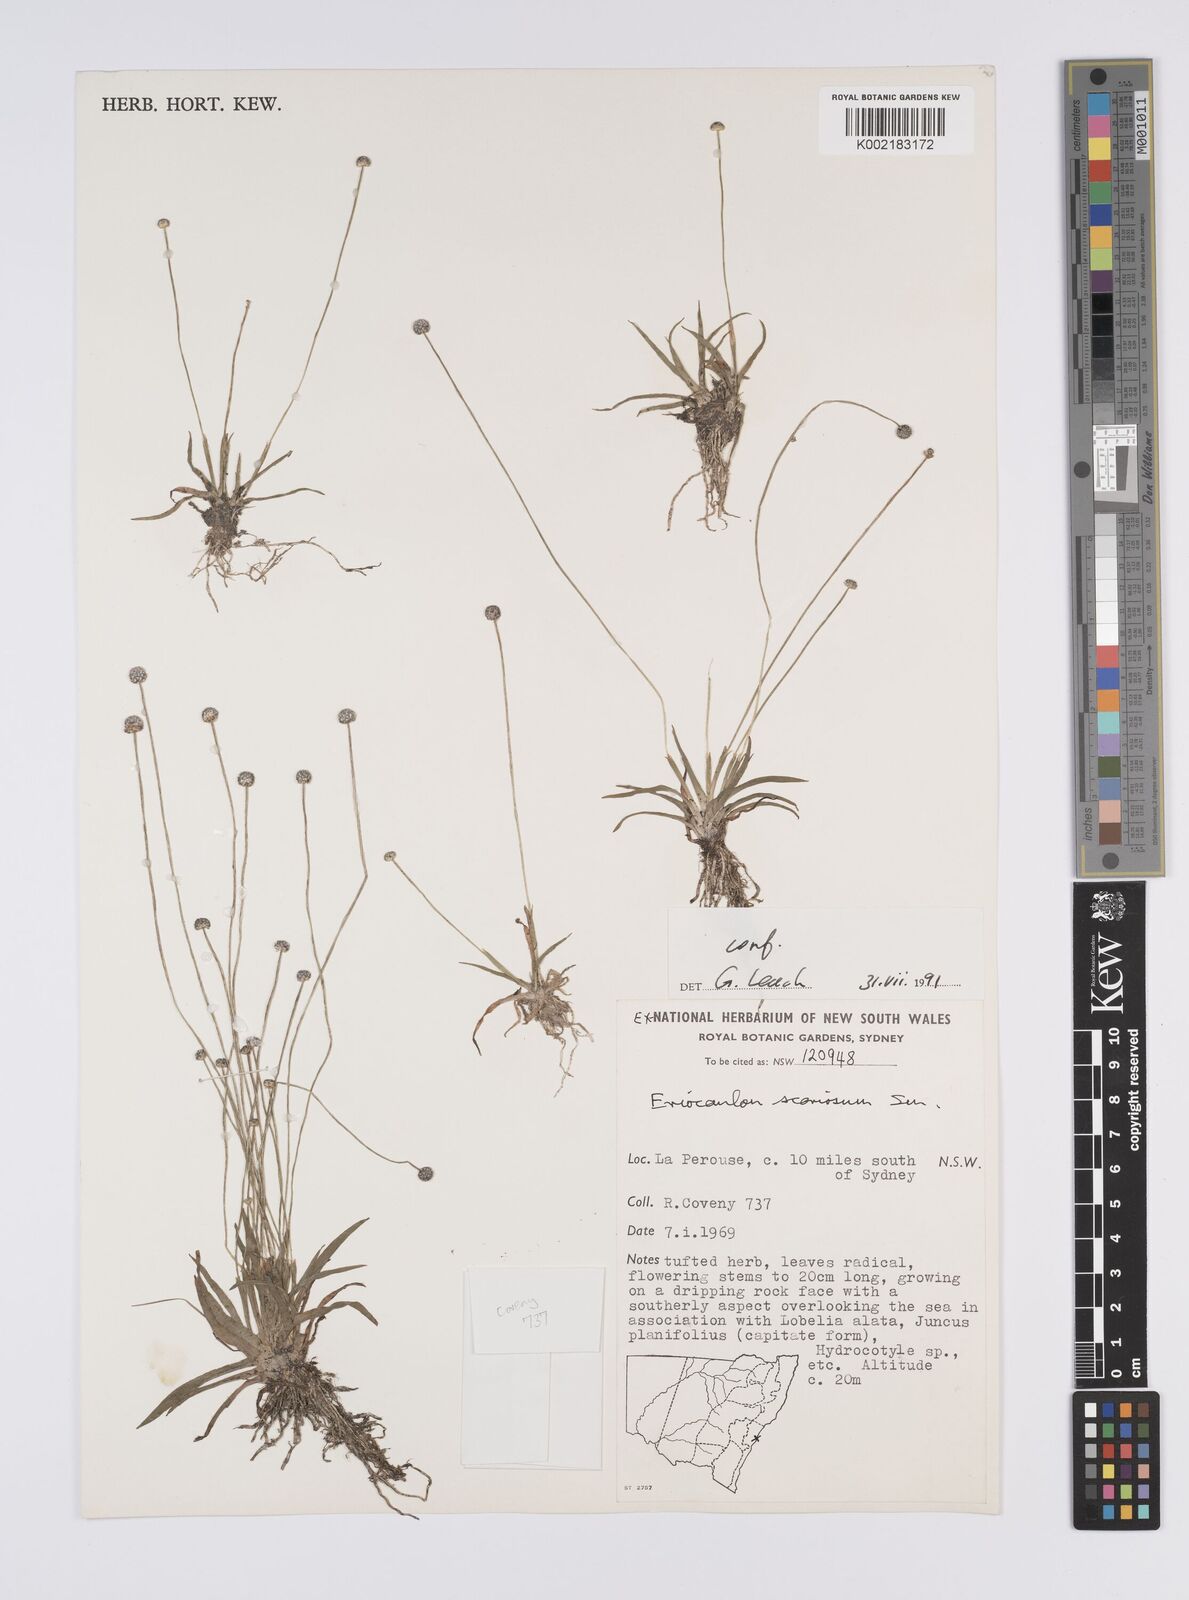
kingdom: Plantae
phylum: Tracheophyta
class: Liliopsida
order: Poales
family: Eriocaulaceae
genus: Eriocaulon
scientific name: Eriocaulon scariosum
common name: Rough pipewort
